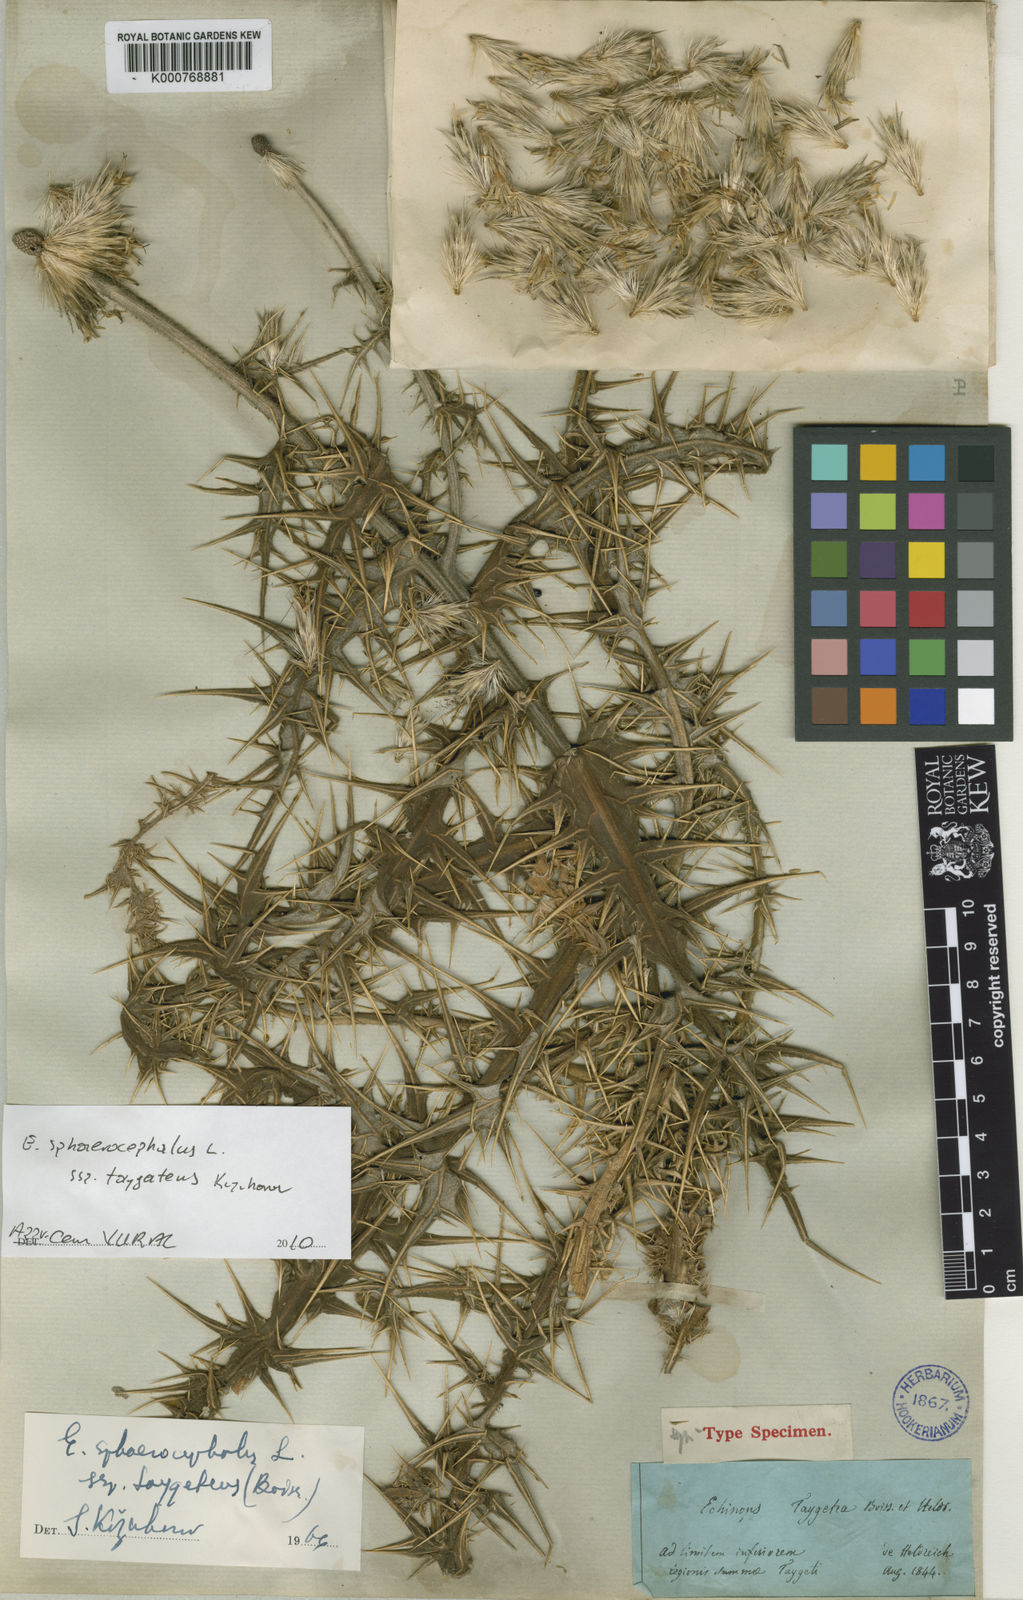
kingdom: Plantae
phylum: Tracheophyta
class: Magnoliopsida
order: Asterales
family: Asteraceae
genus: Echinops
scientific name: Echinops sphaerocephalus
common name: Glandular globe-thistle
